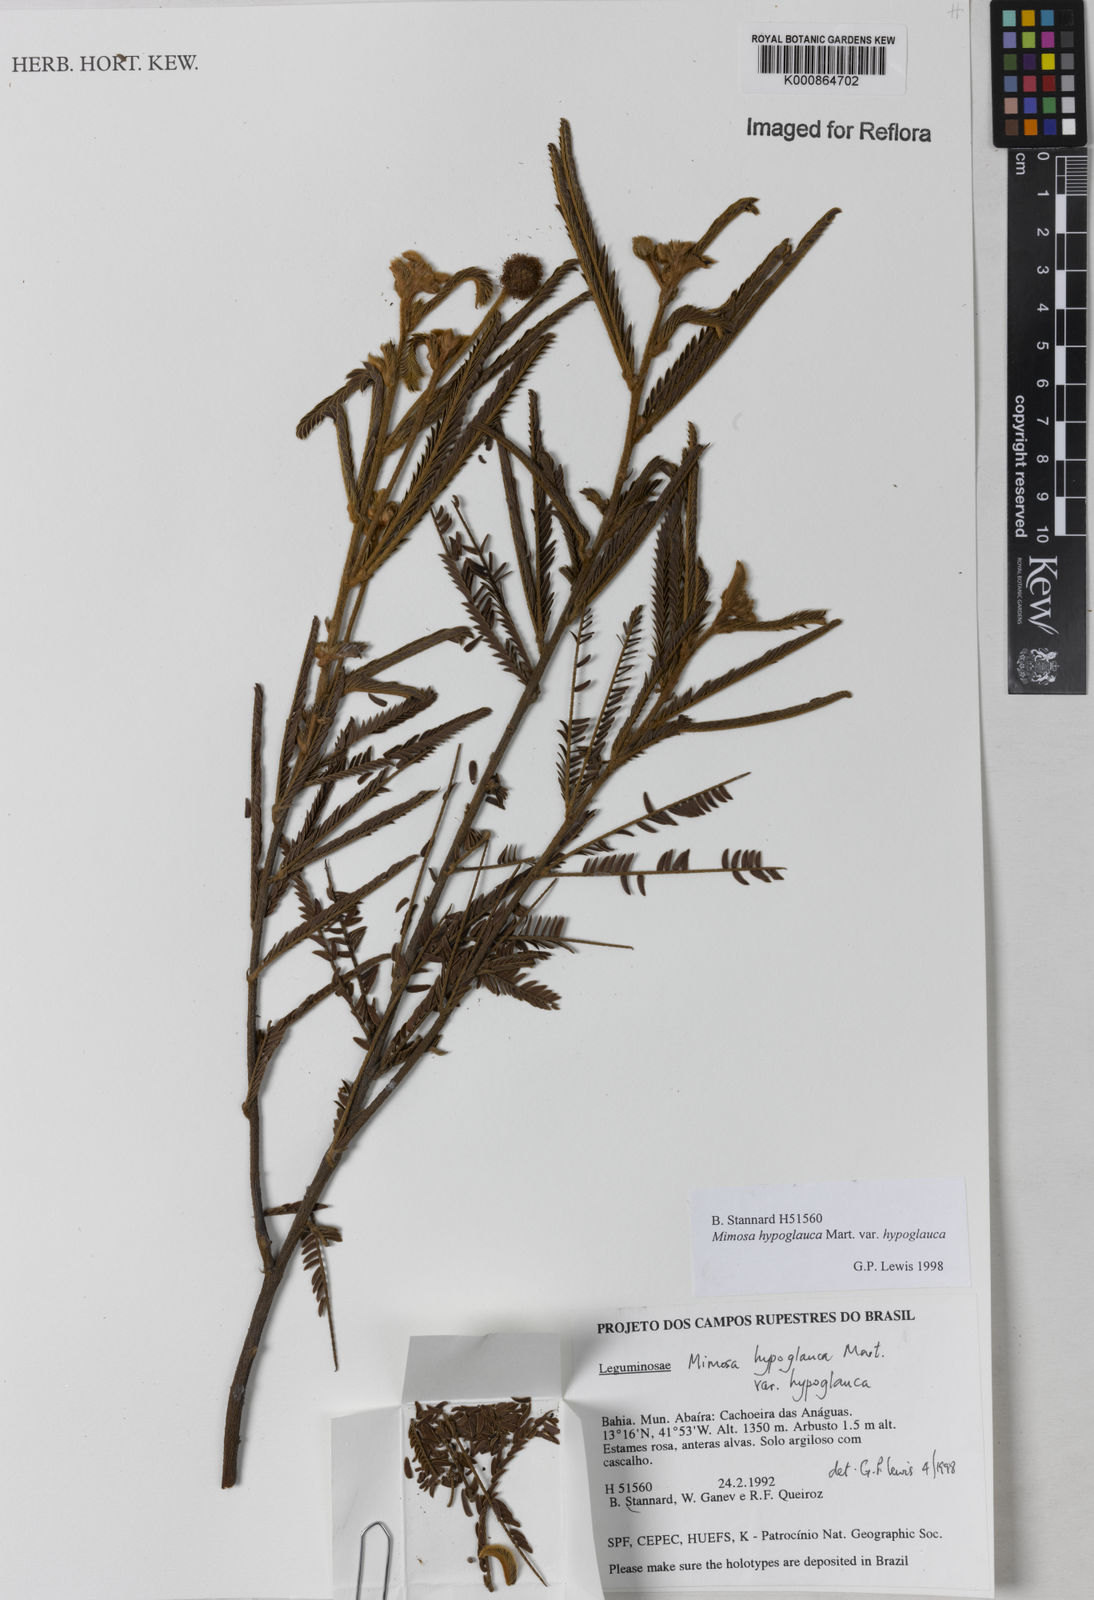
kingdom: Plantae
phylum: Tracheophyta
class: Magnoliopsida
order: Fabales
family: Fabaceae
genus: Mimosa
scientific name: Mimosa hypoglauca
